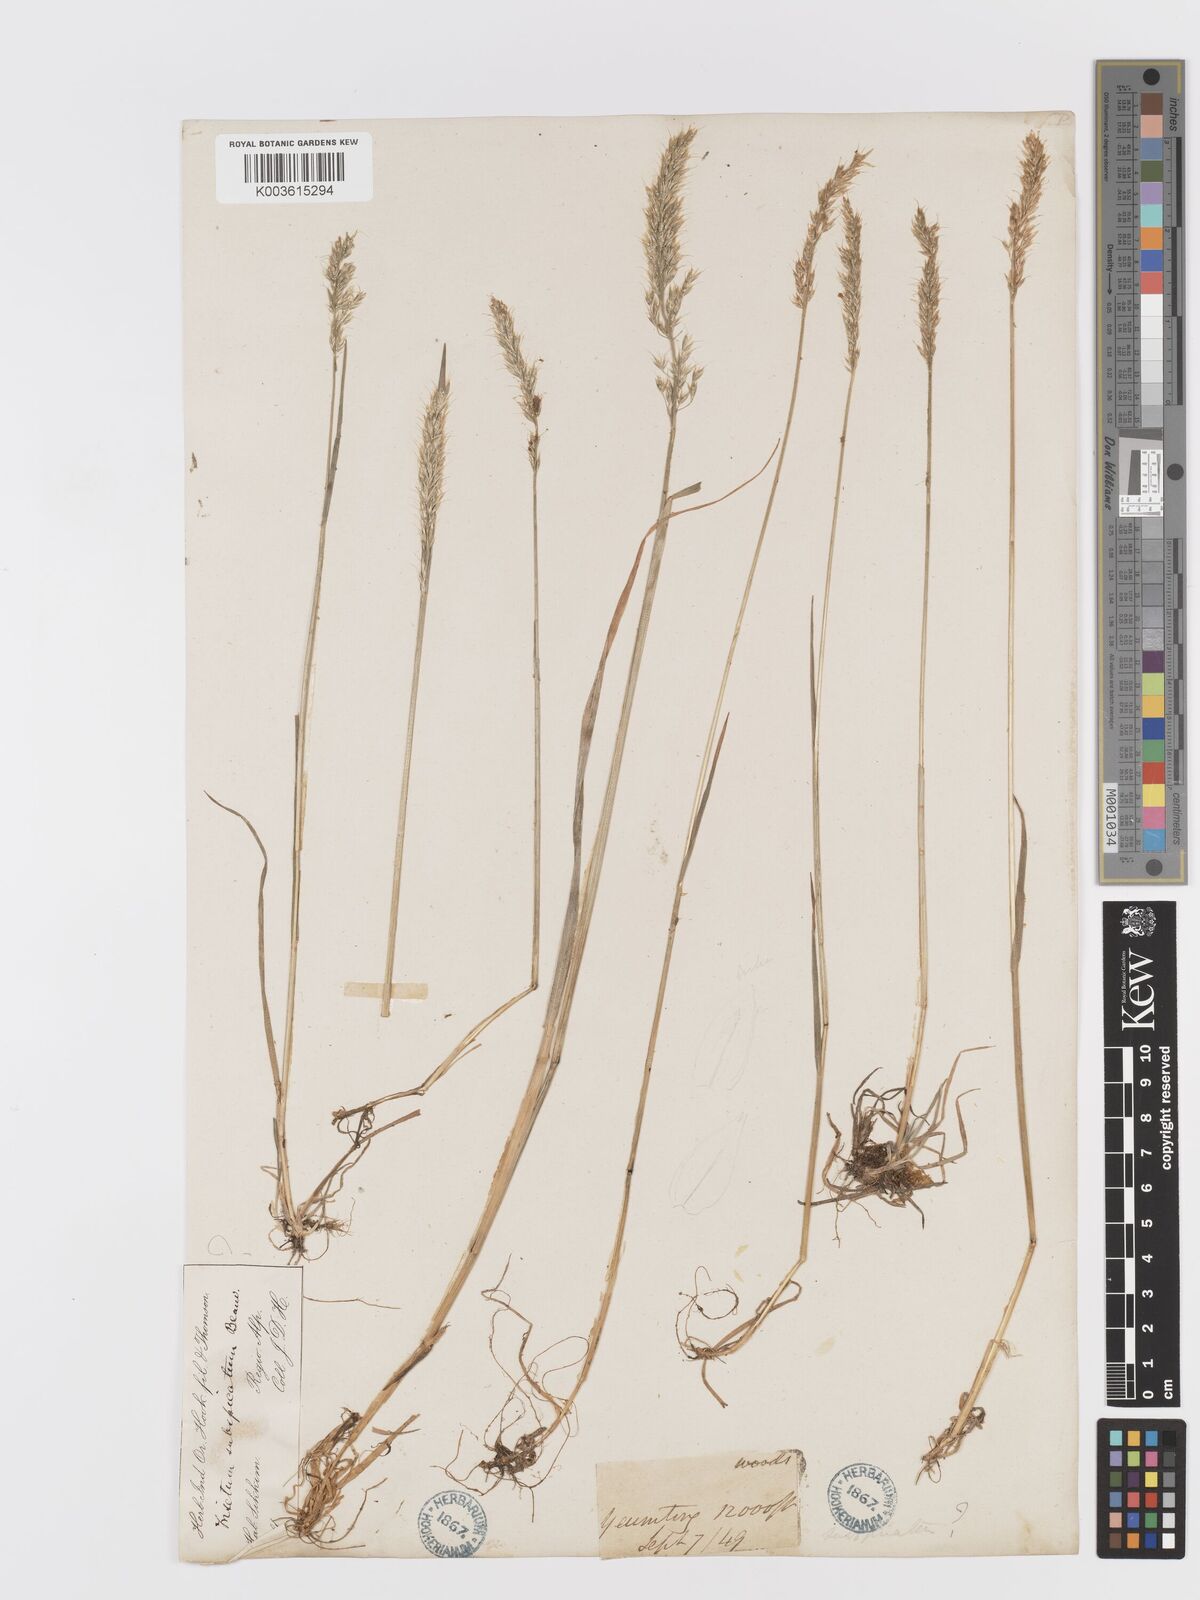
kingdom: Plantae
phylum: Tracheophyta
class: Liliopsida
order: Poales
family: Poaceae
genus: Koeleria
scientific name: Koeleria spicata
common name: Mountain trisetum
